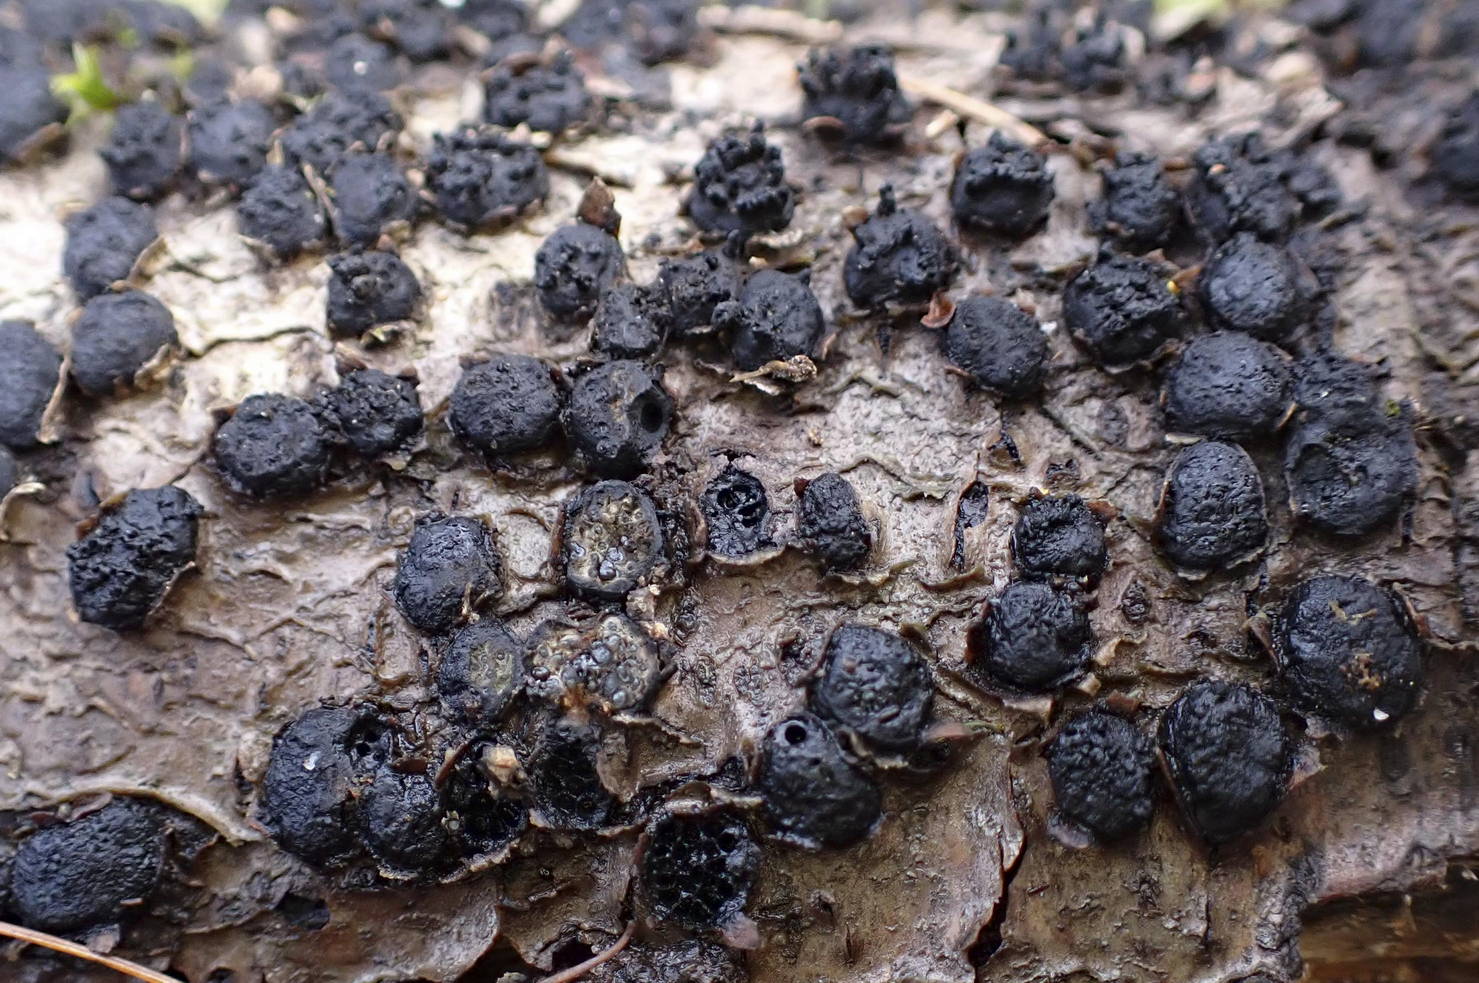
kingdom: Fungi
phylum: Ascomycota
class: Sordariomycetes
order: Xylariales
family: Diatrypaceae
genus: Diatrypella
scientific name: Diatrypella quercina
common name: ege-kulskorpe
